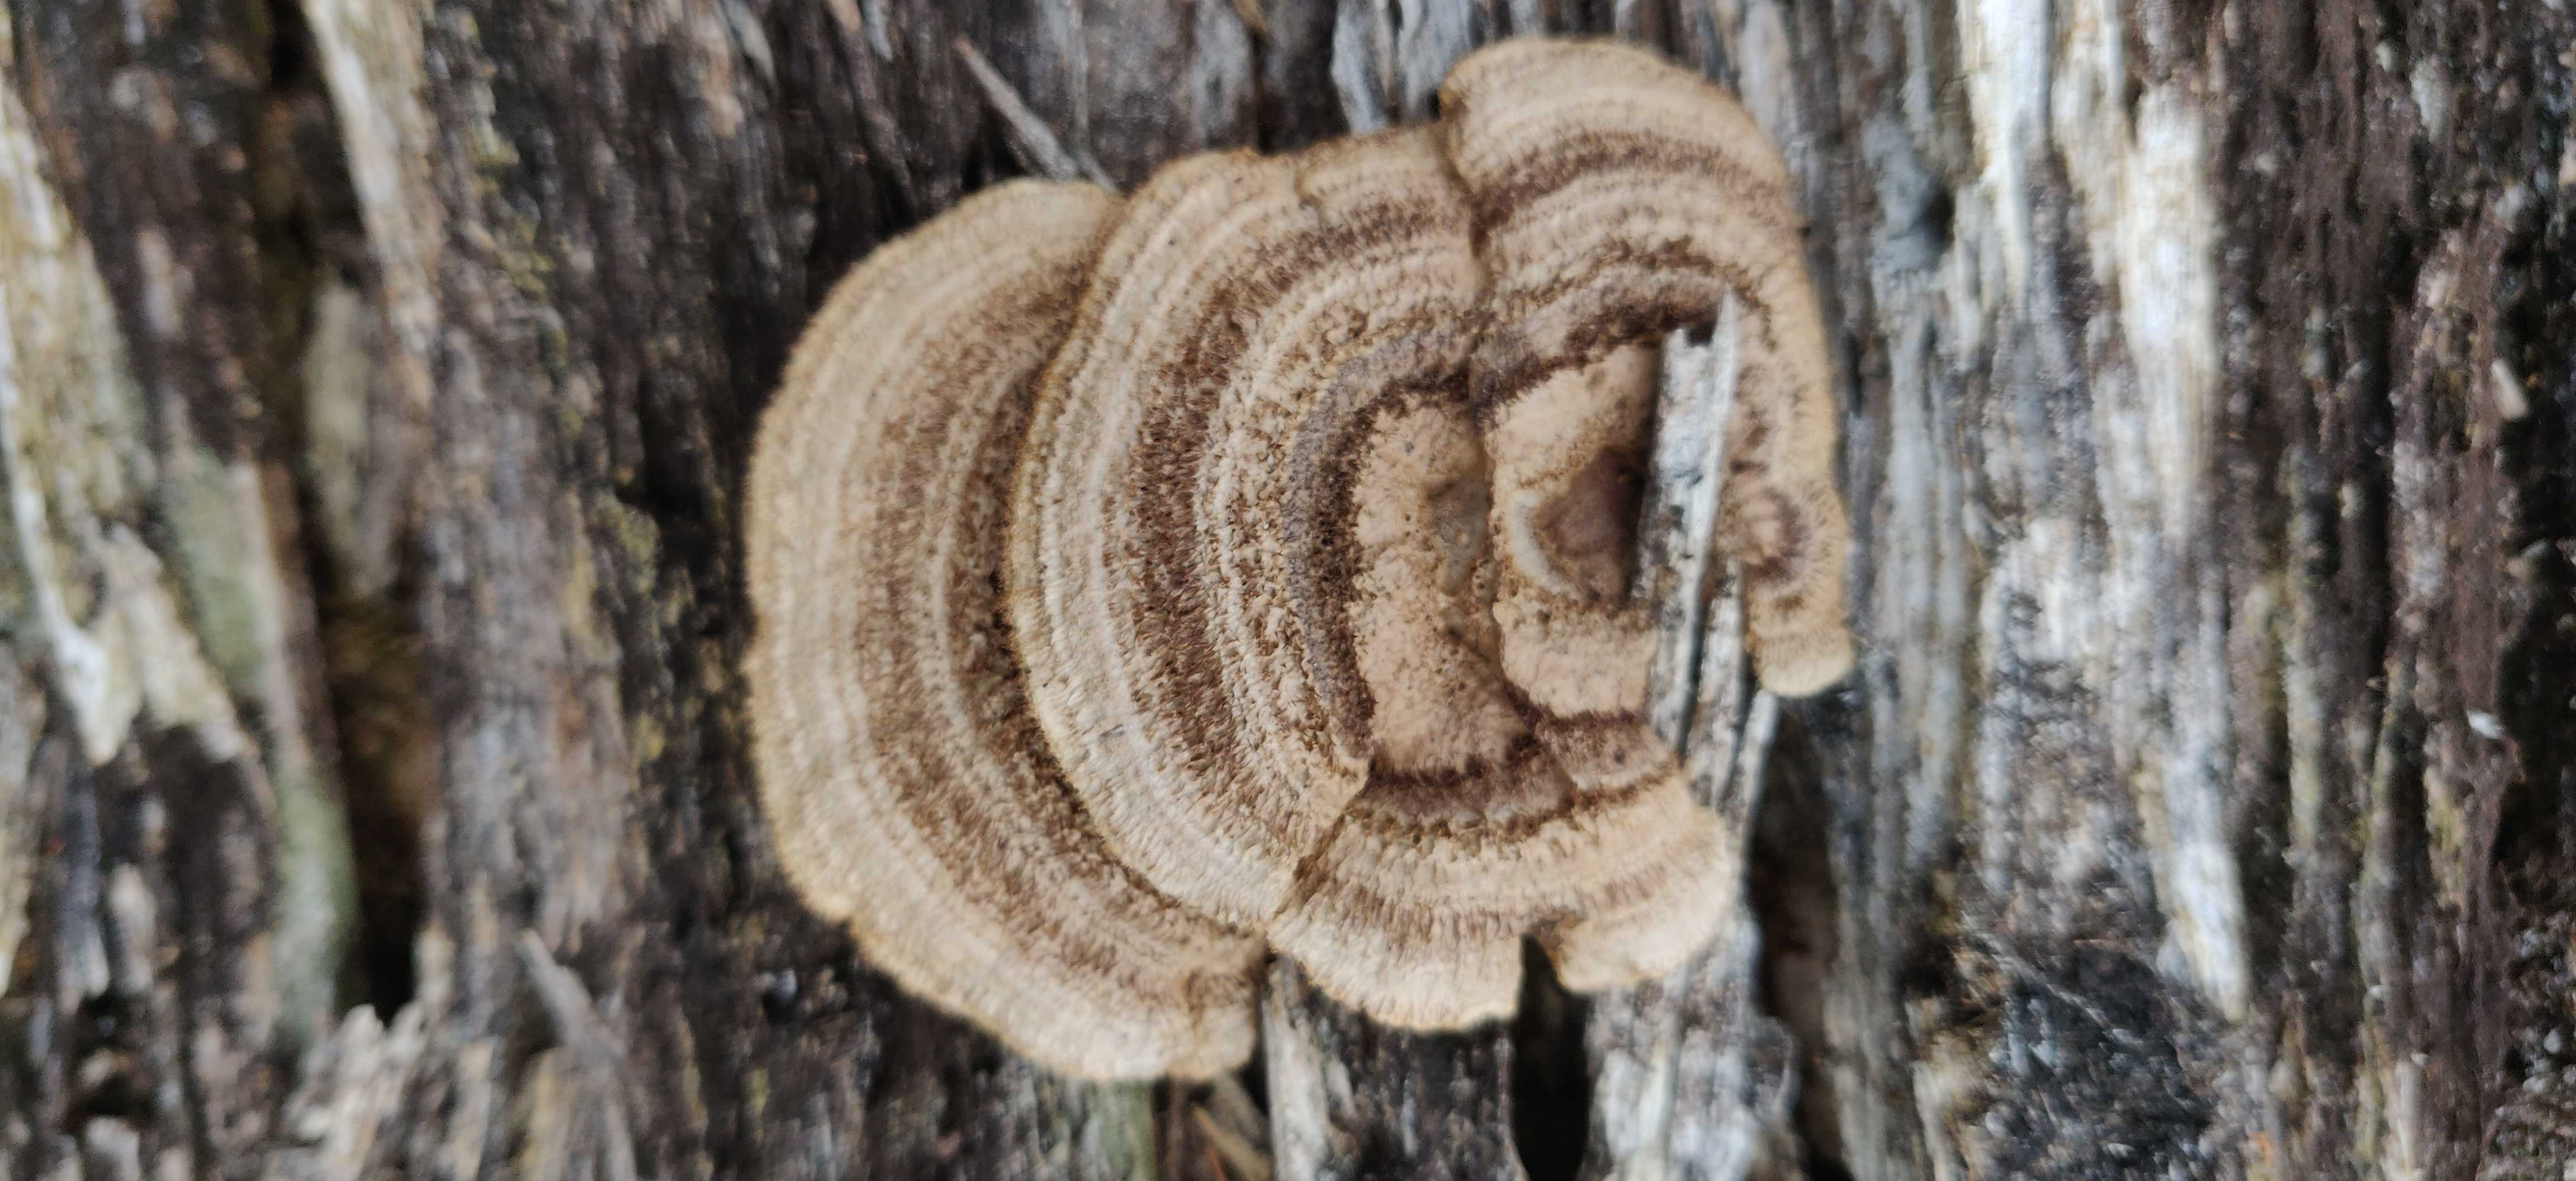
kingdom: Fungi
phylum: Basidiomycota
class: Agaricomycetes
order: Gloeophyllales
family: Gloeophyllaceae
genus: Gloeophyllum
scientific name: Gloeophyllum sepiarium
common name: fyrre-korkhat
